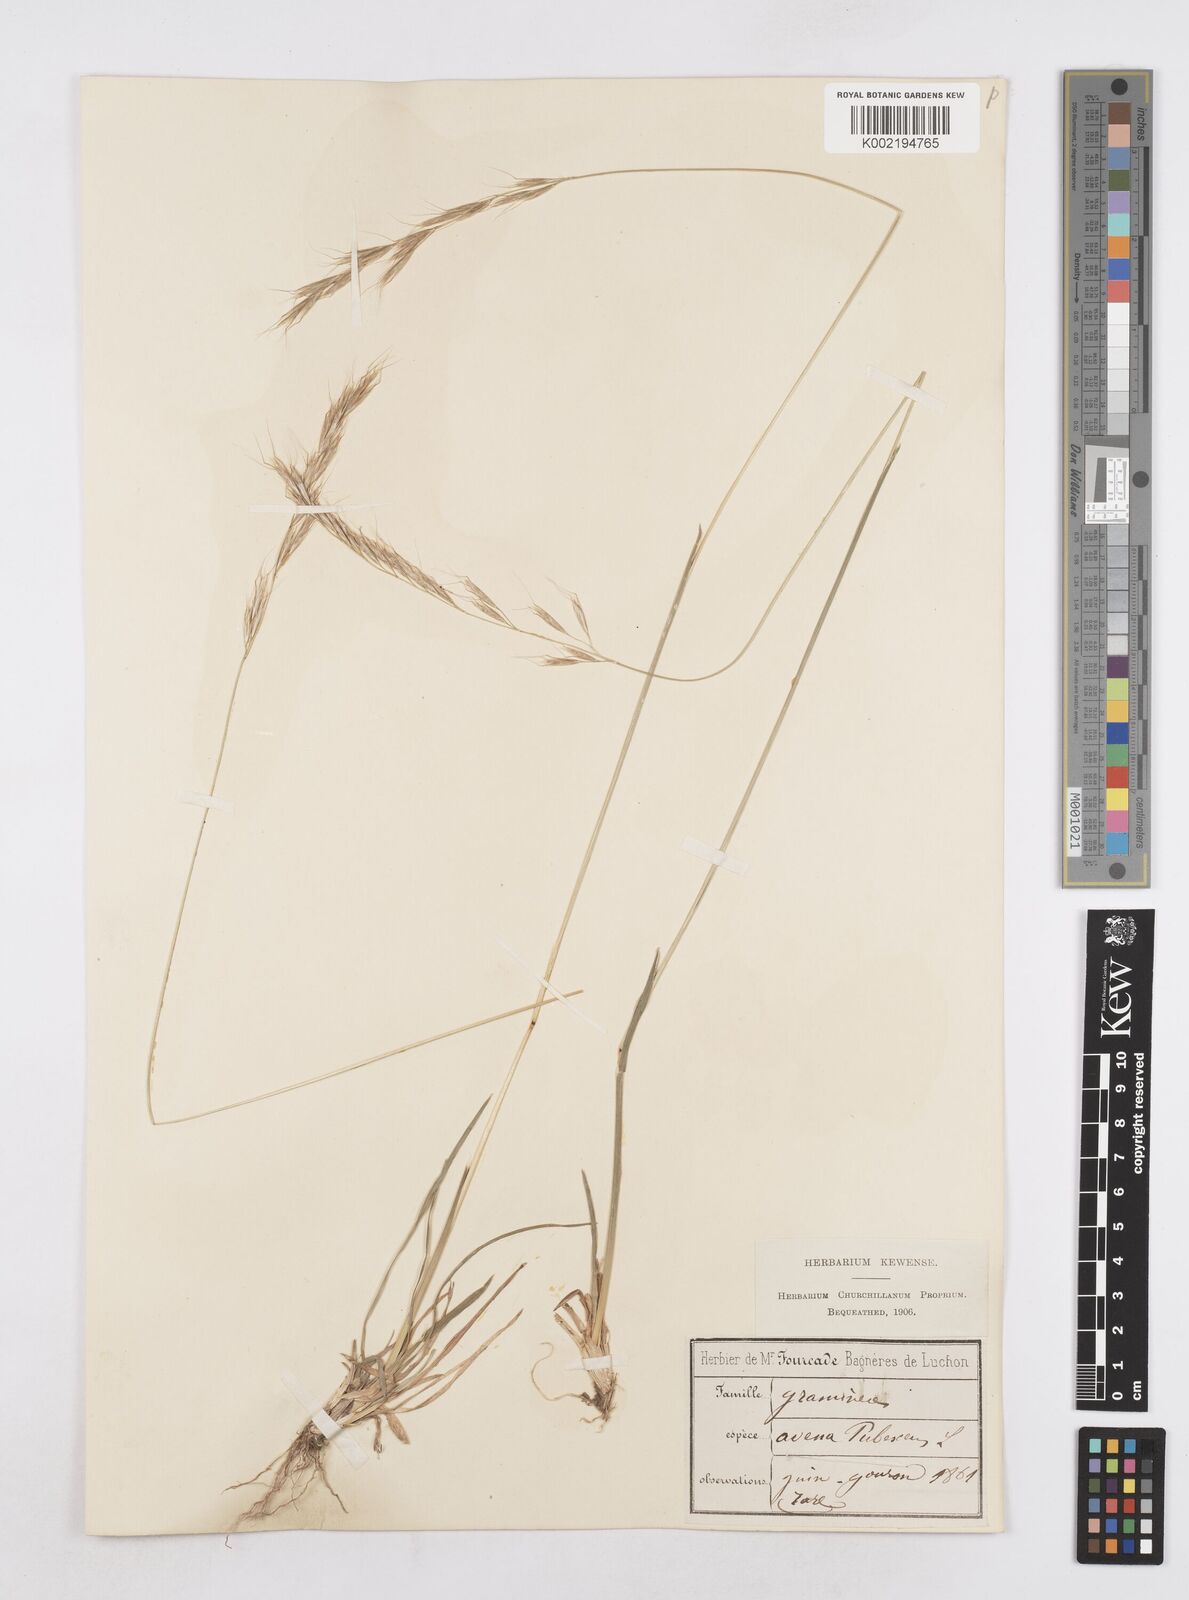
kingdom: Plantae
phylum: Tracheophyta
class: Liliopsida
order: Poales
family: Poaceae
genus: Avenula
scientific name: Avenula pubescens
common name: Downy alpine oatgrass
